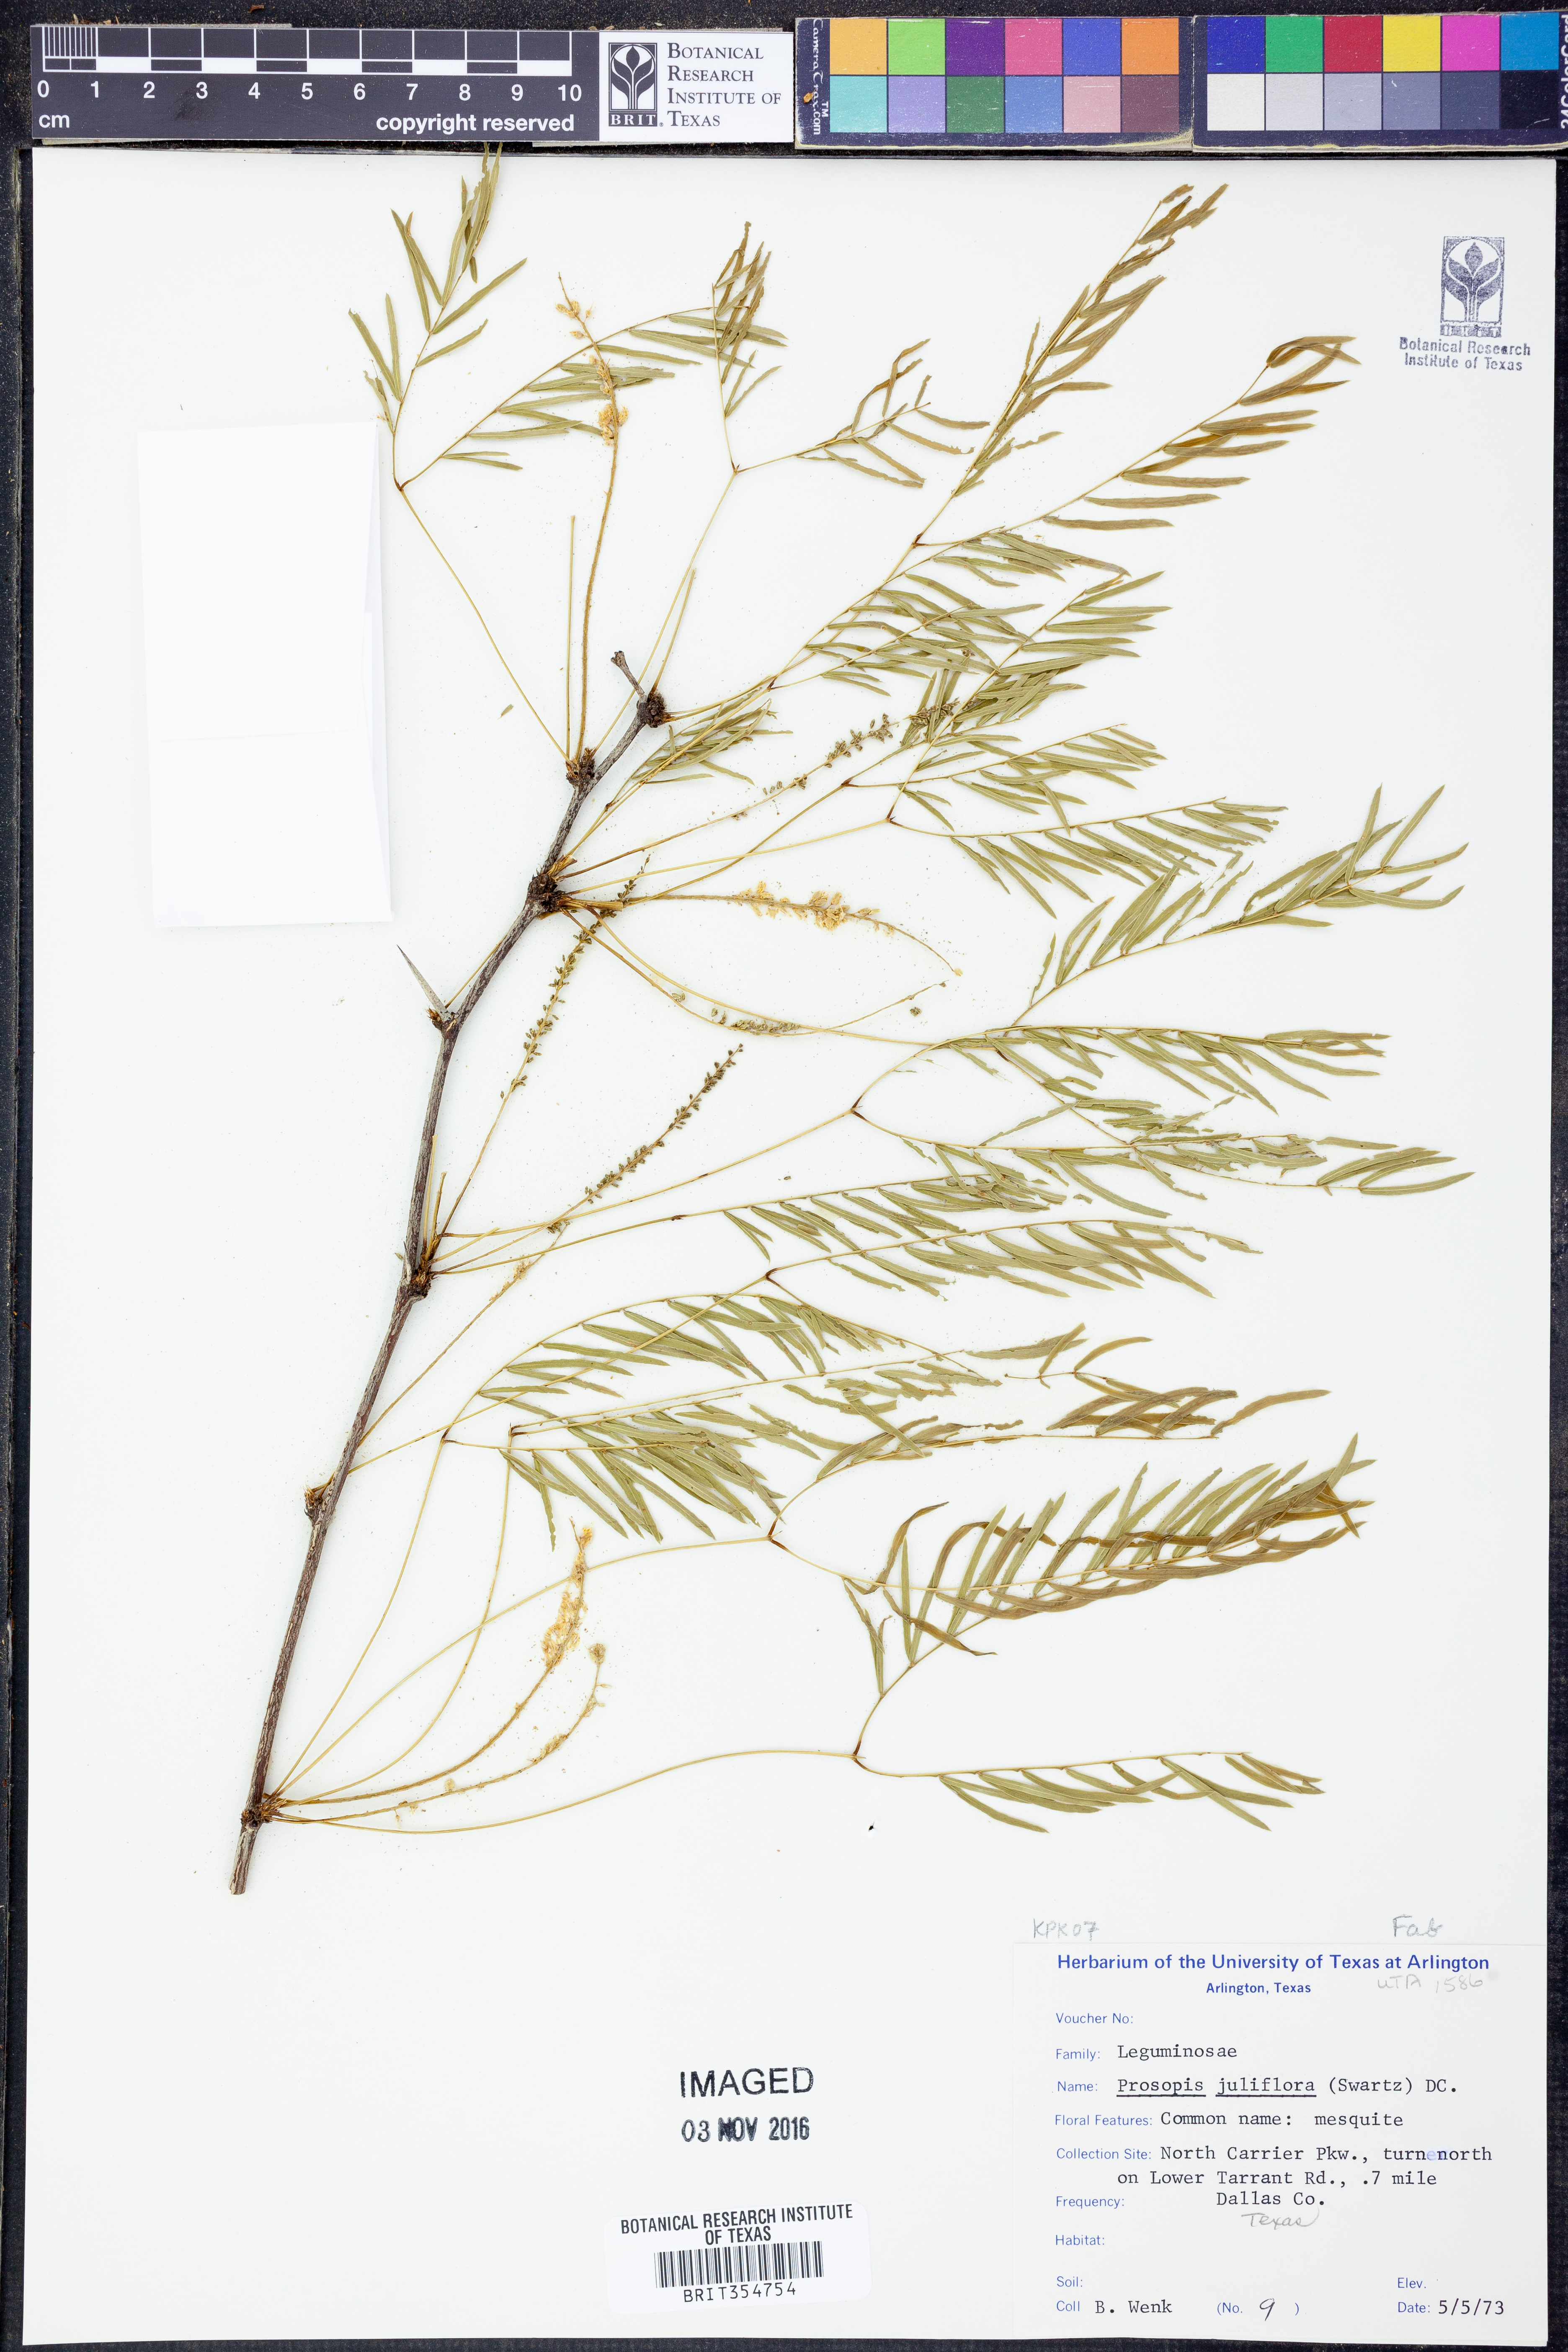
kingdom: Plantae
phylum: Tracheophyta
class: Magnoliopsida
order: Fabales
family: Fabaceae
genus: Prosopis
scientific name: Prosopis juliflora
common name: Mesquite
